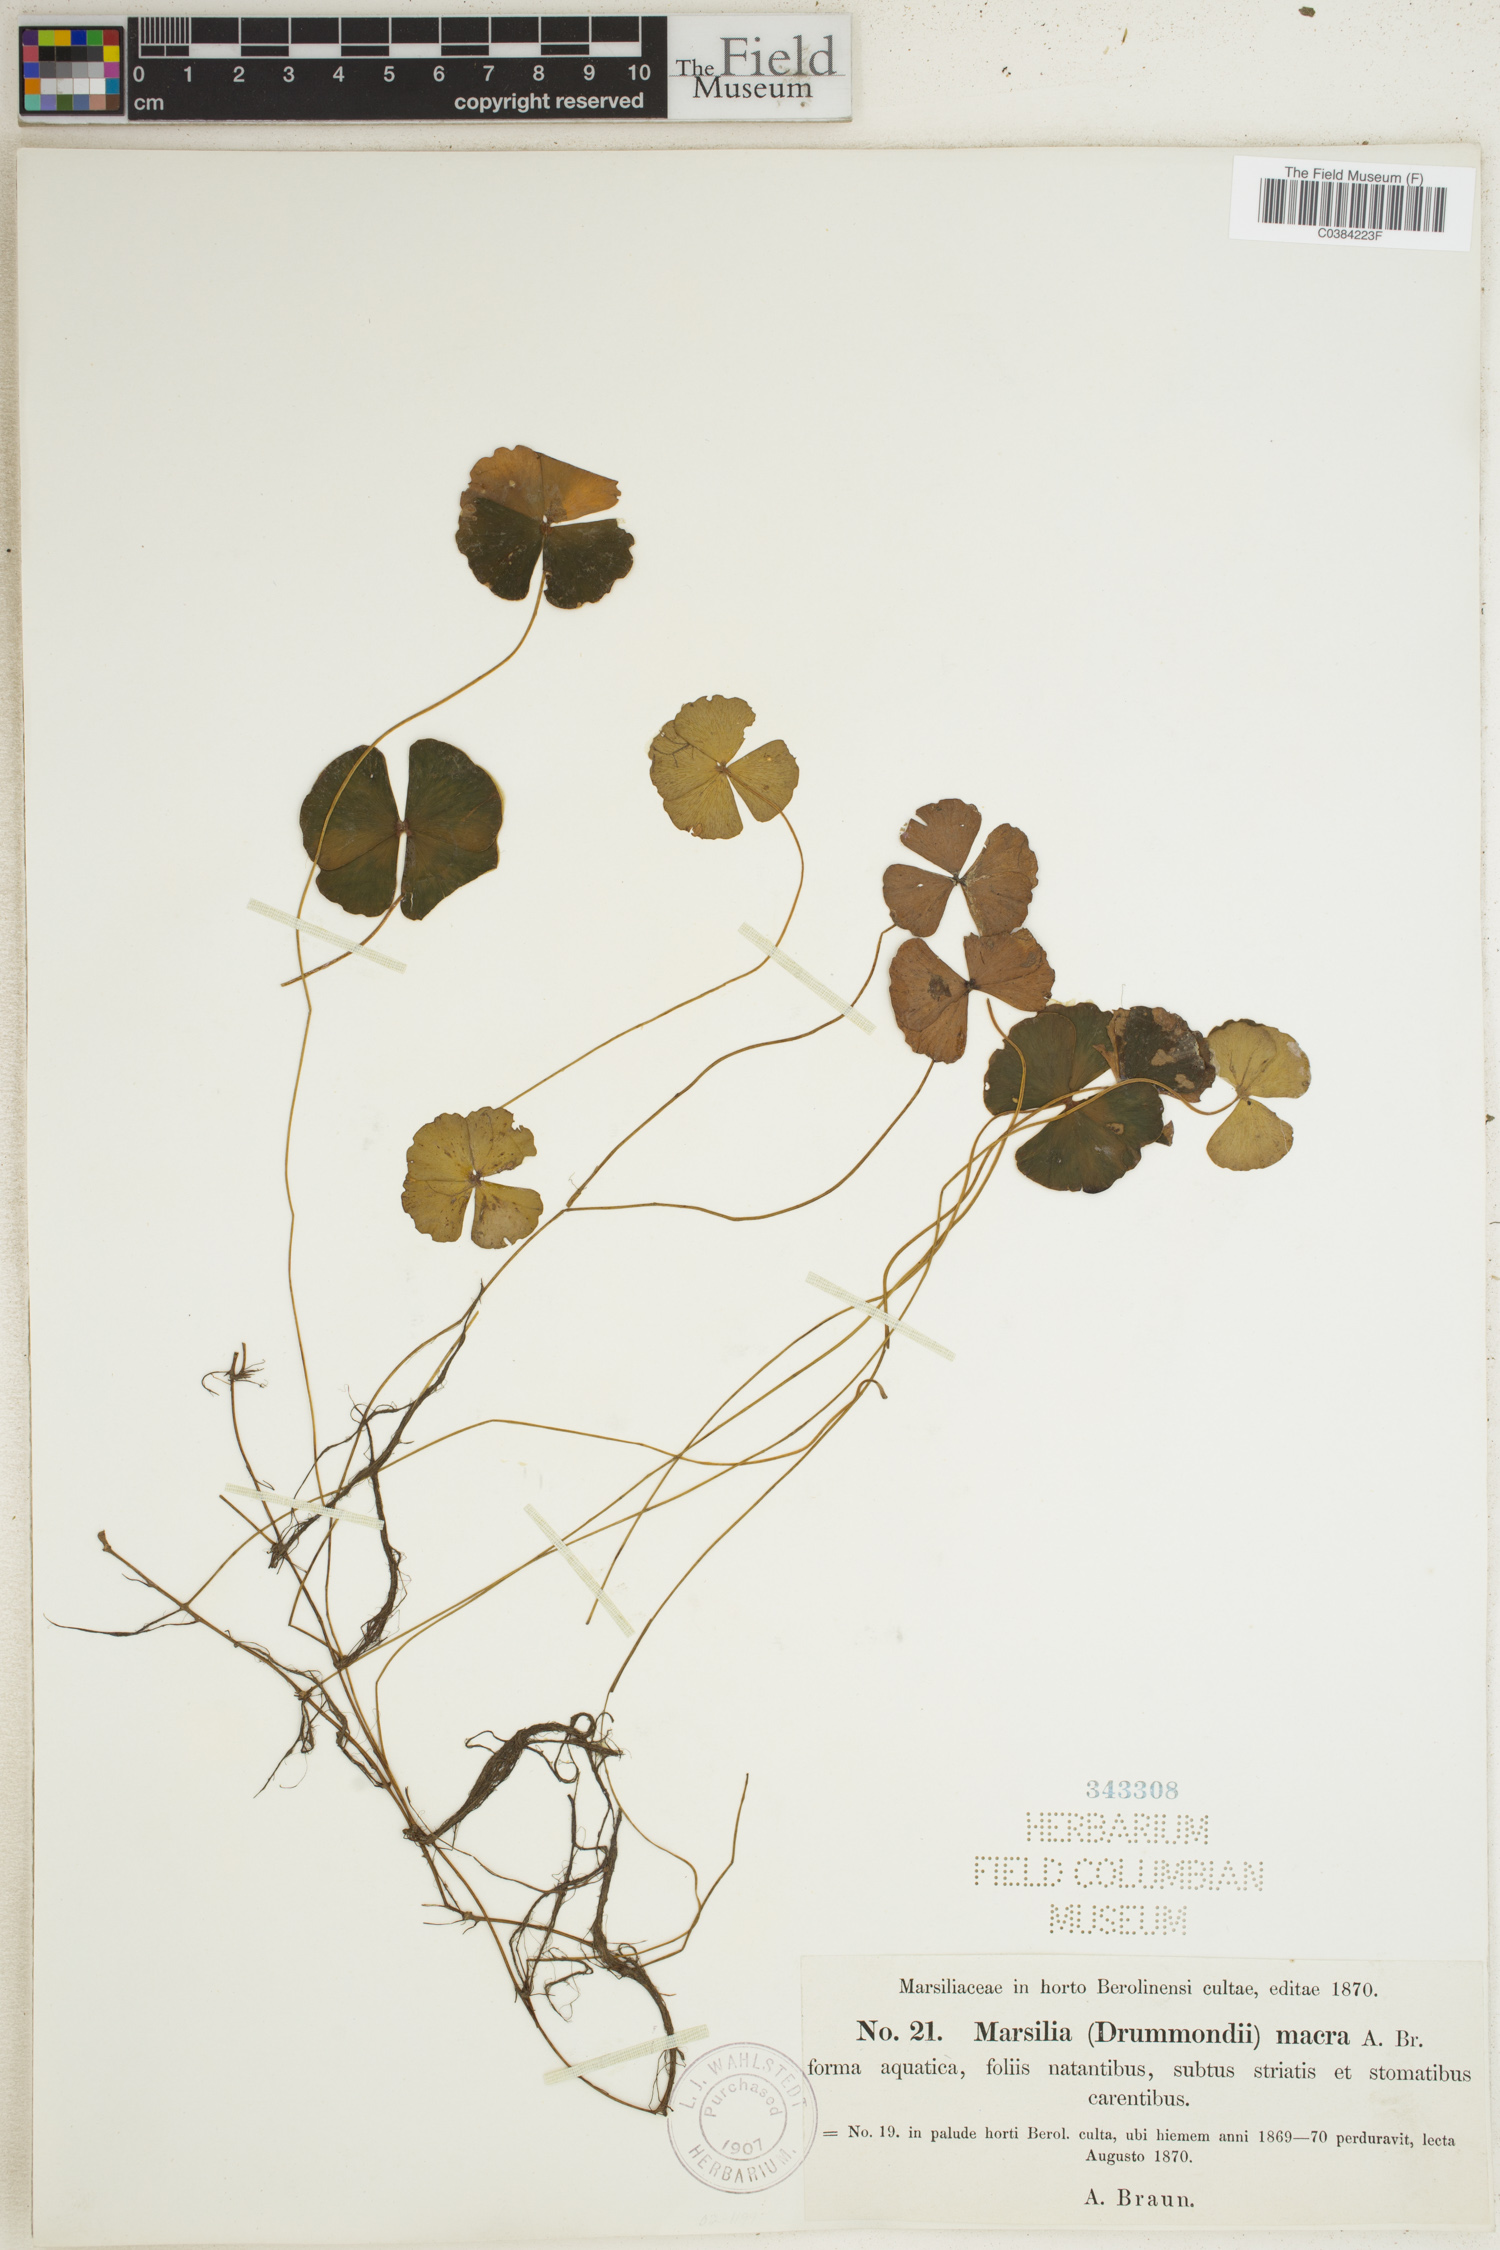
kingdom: Plantae
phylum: Tracheophyta
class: Polypodiopsida
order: Salviniales
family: Marsileaceae
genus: Marsilea
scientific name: Marsilea drummondii
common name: Nardoo
